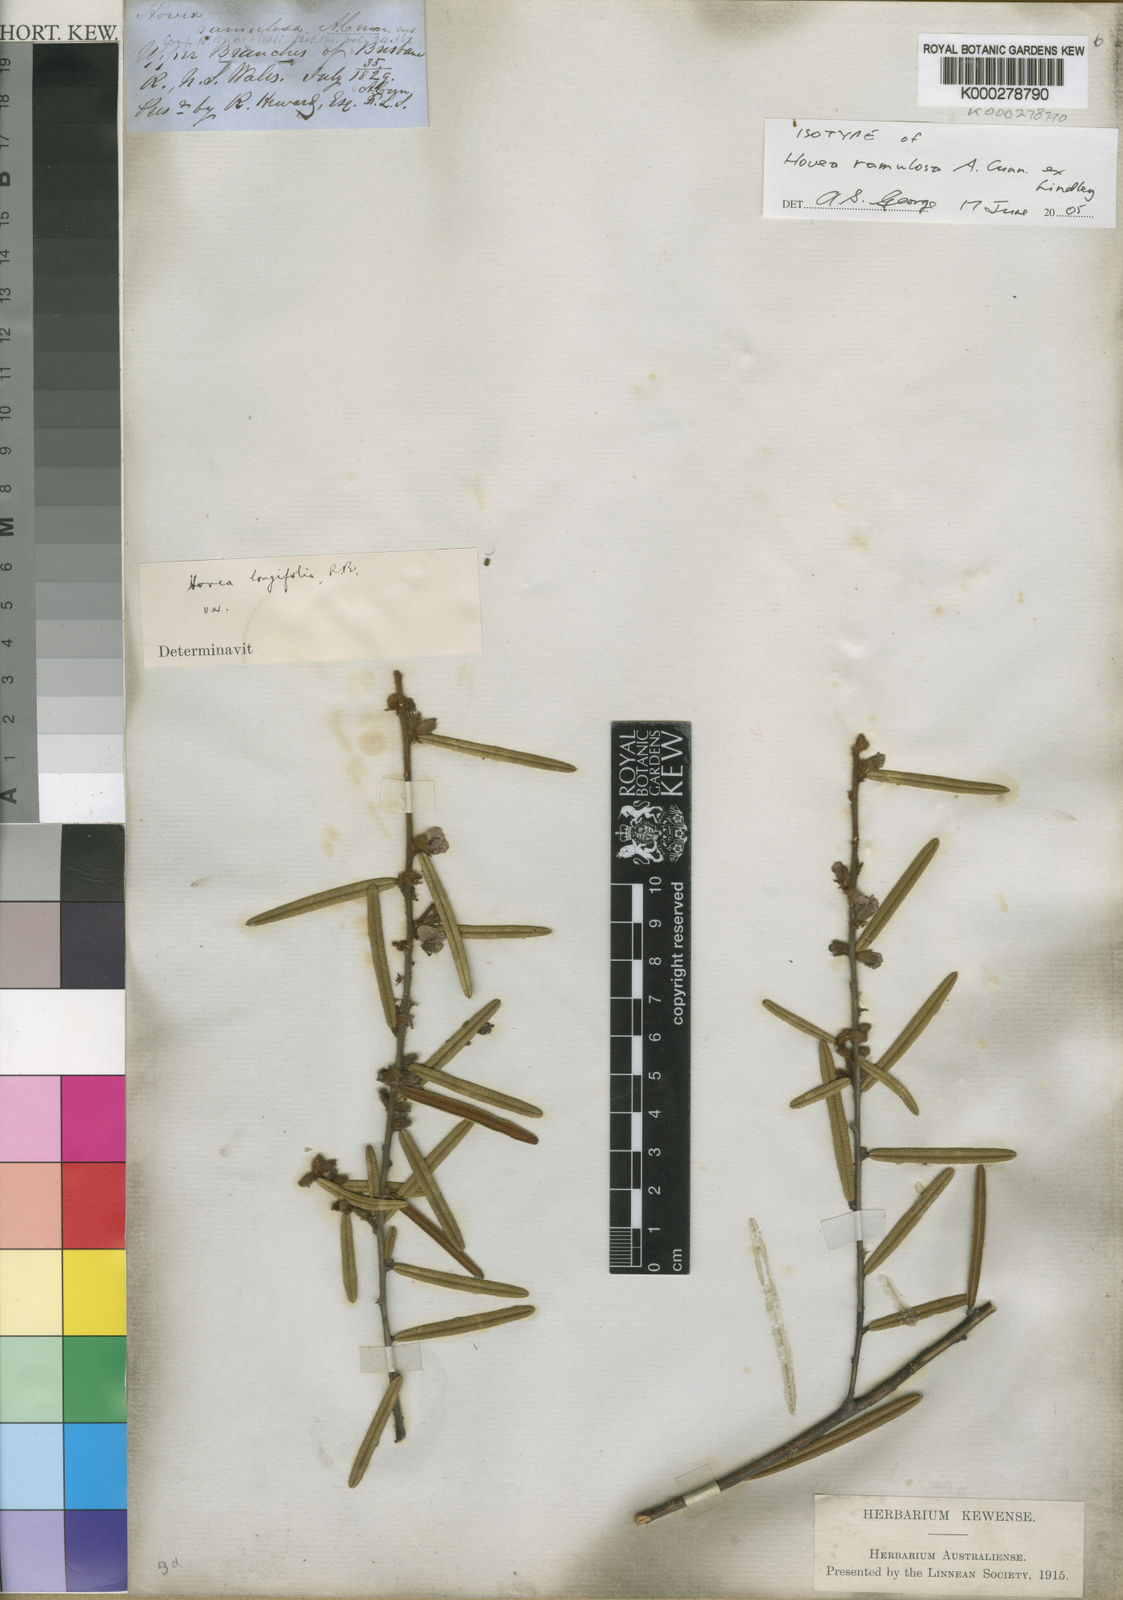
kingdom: Plantae
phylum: Tracheophyta
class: Magnoliopsida
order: Fabales
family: Fabaceae
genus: Hovea
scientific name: Hovea lanceolata
